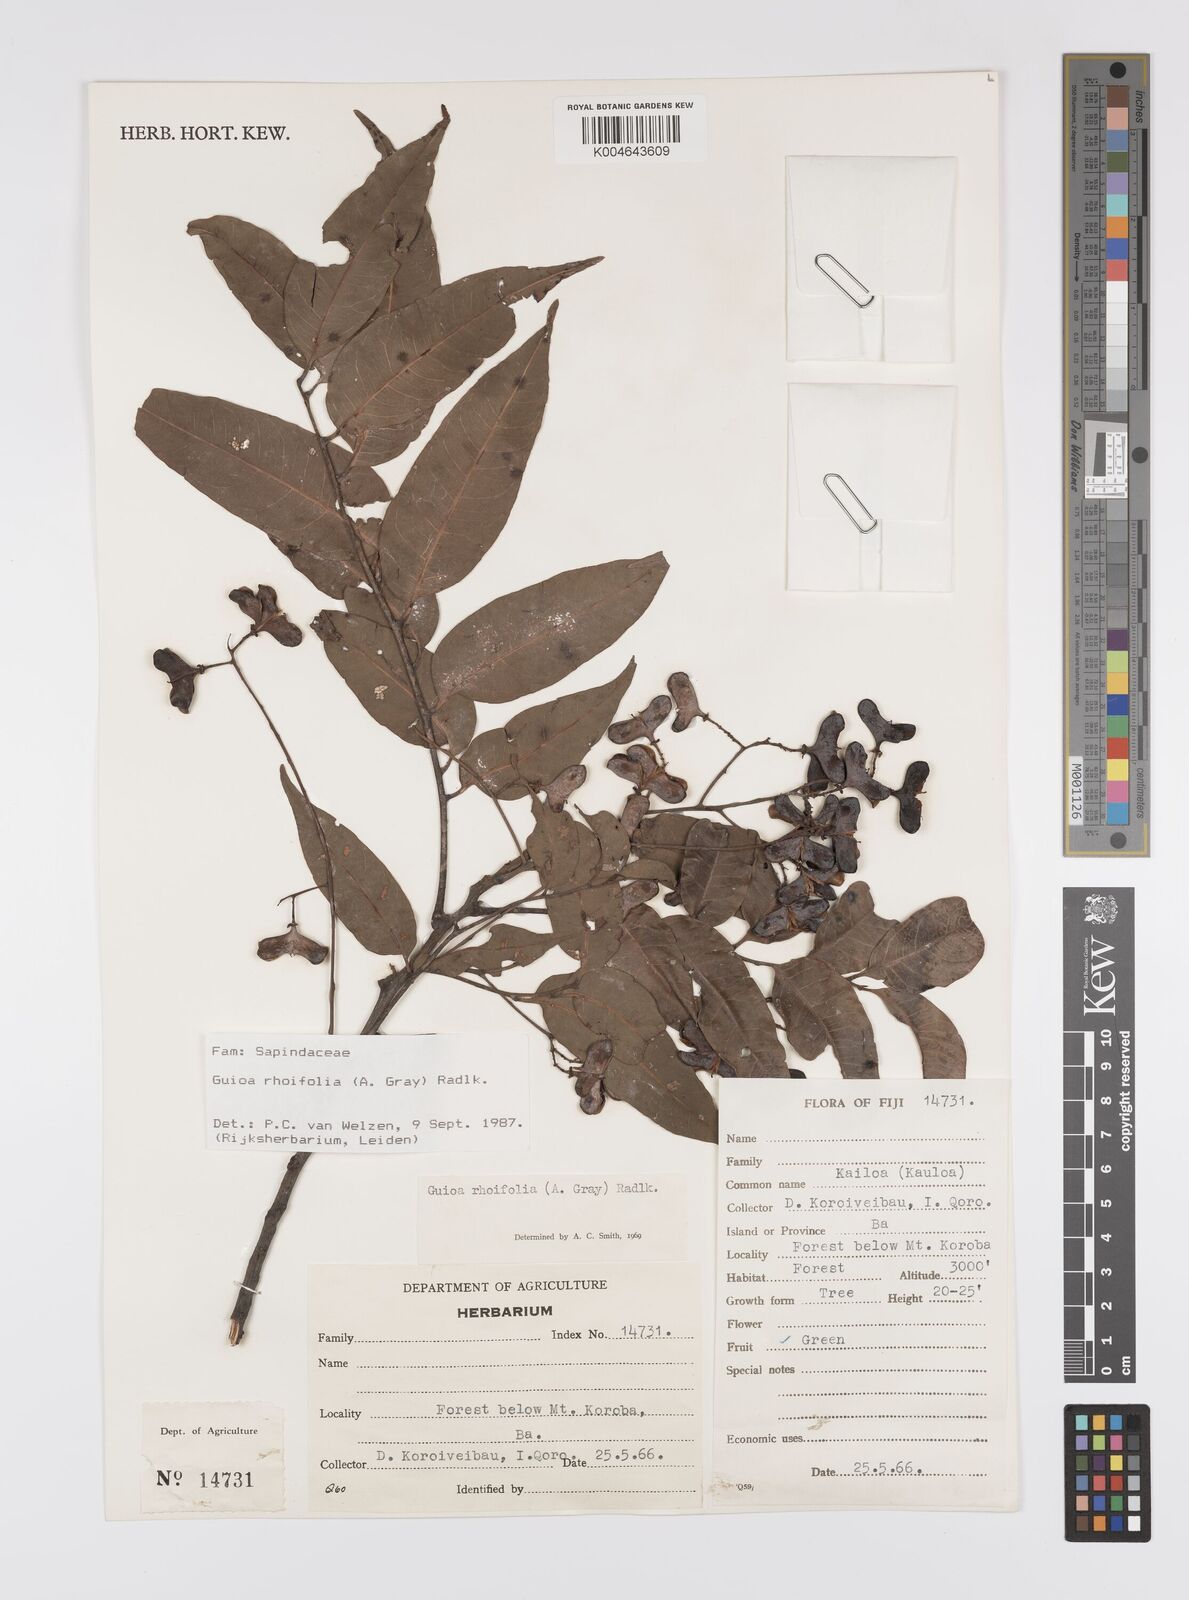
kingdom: Plantae
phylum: Tracheophyta
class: Magnoliopsida
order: Sapindales
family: Sapindaceae
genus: Guioa
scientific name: Guioa rhoifolia
